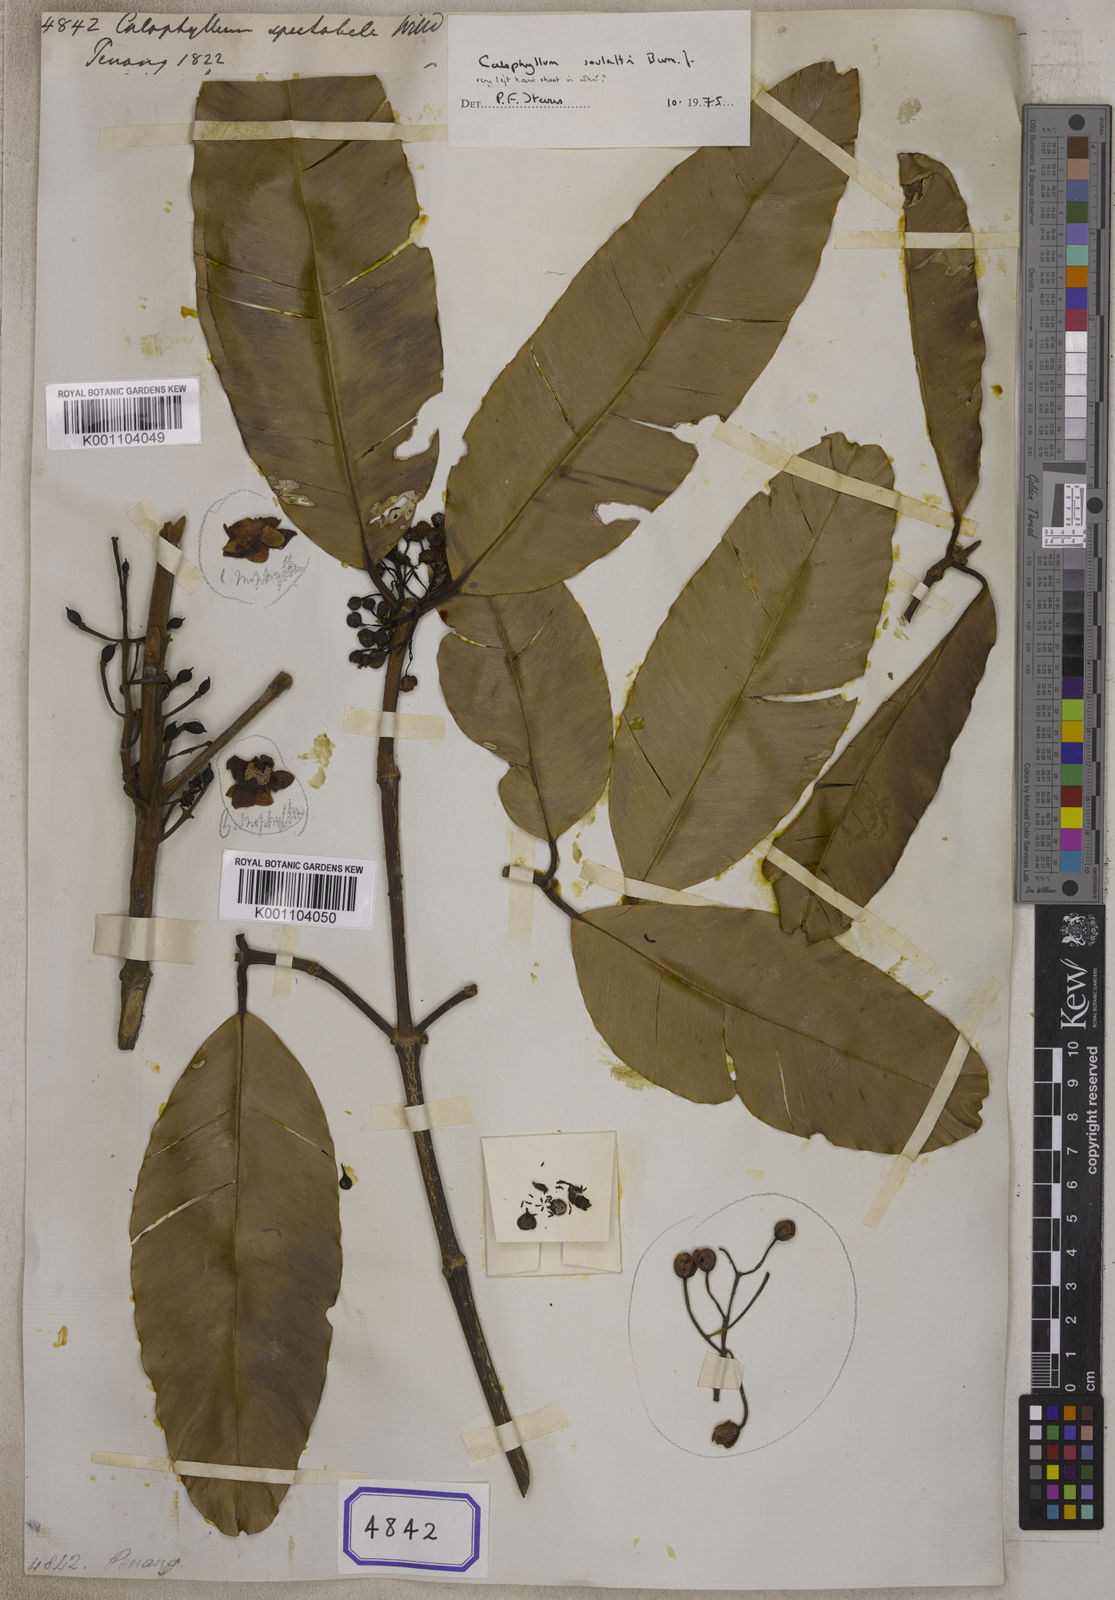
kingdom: Plantae
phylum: Tracheophyta
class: Magnoliopsida
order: Malpighiales
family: Calophyllaceae
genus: Calophyllum
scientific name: Calophyllum tacamahaca
